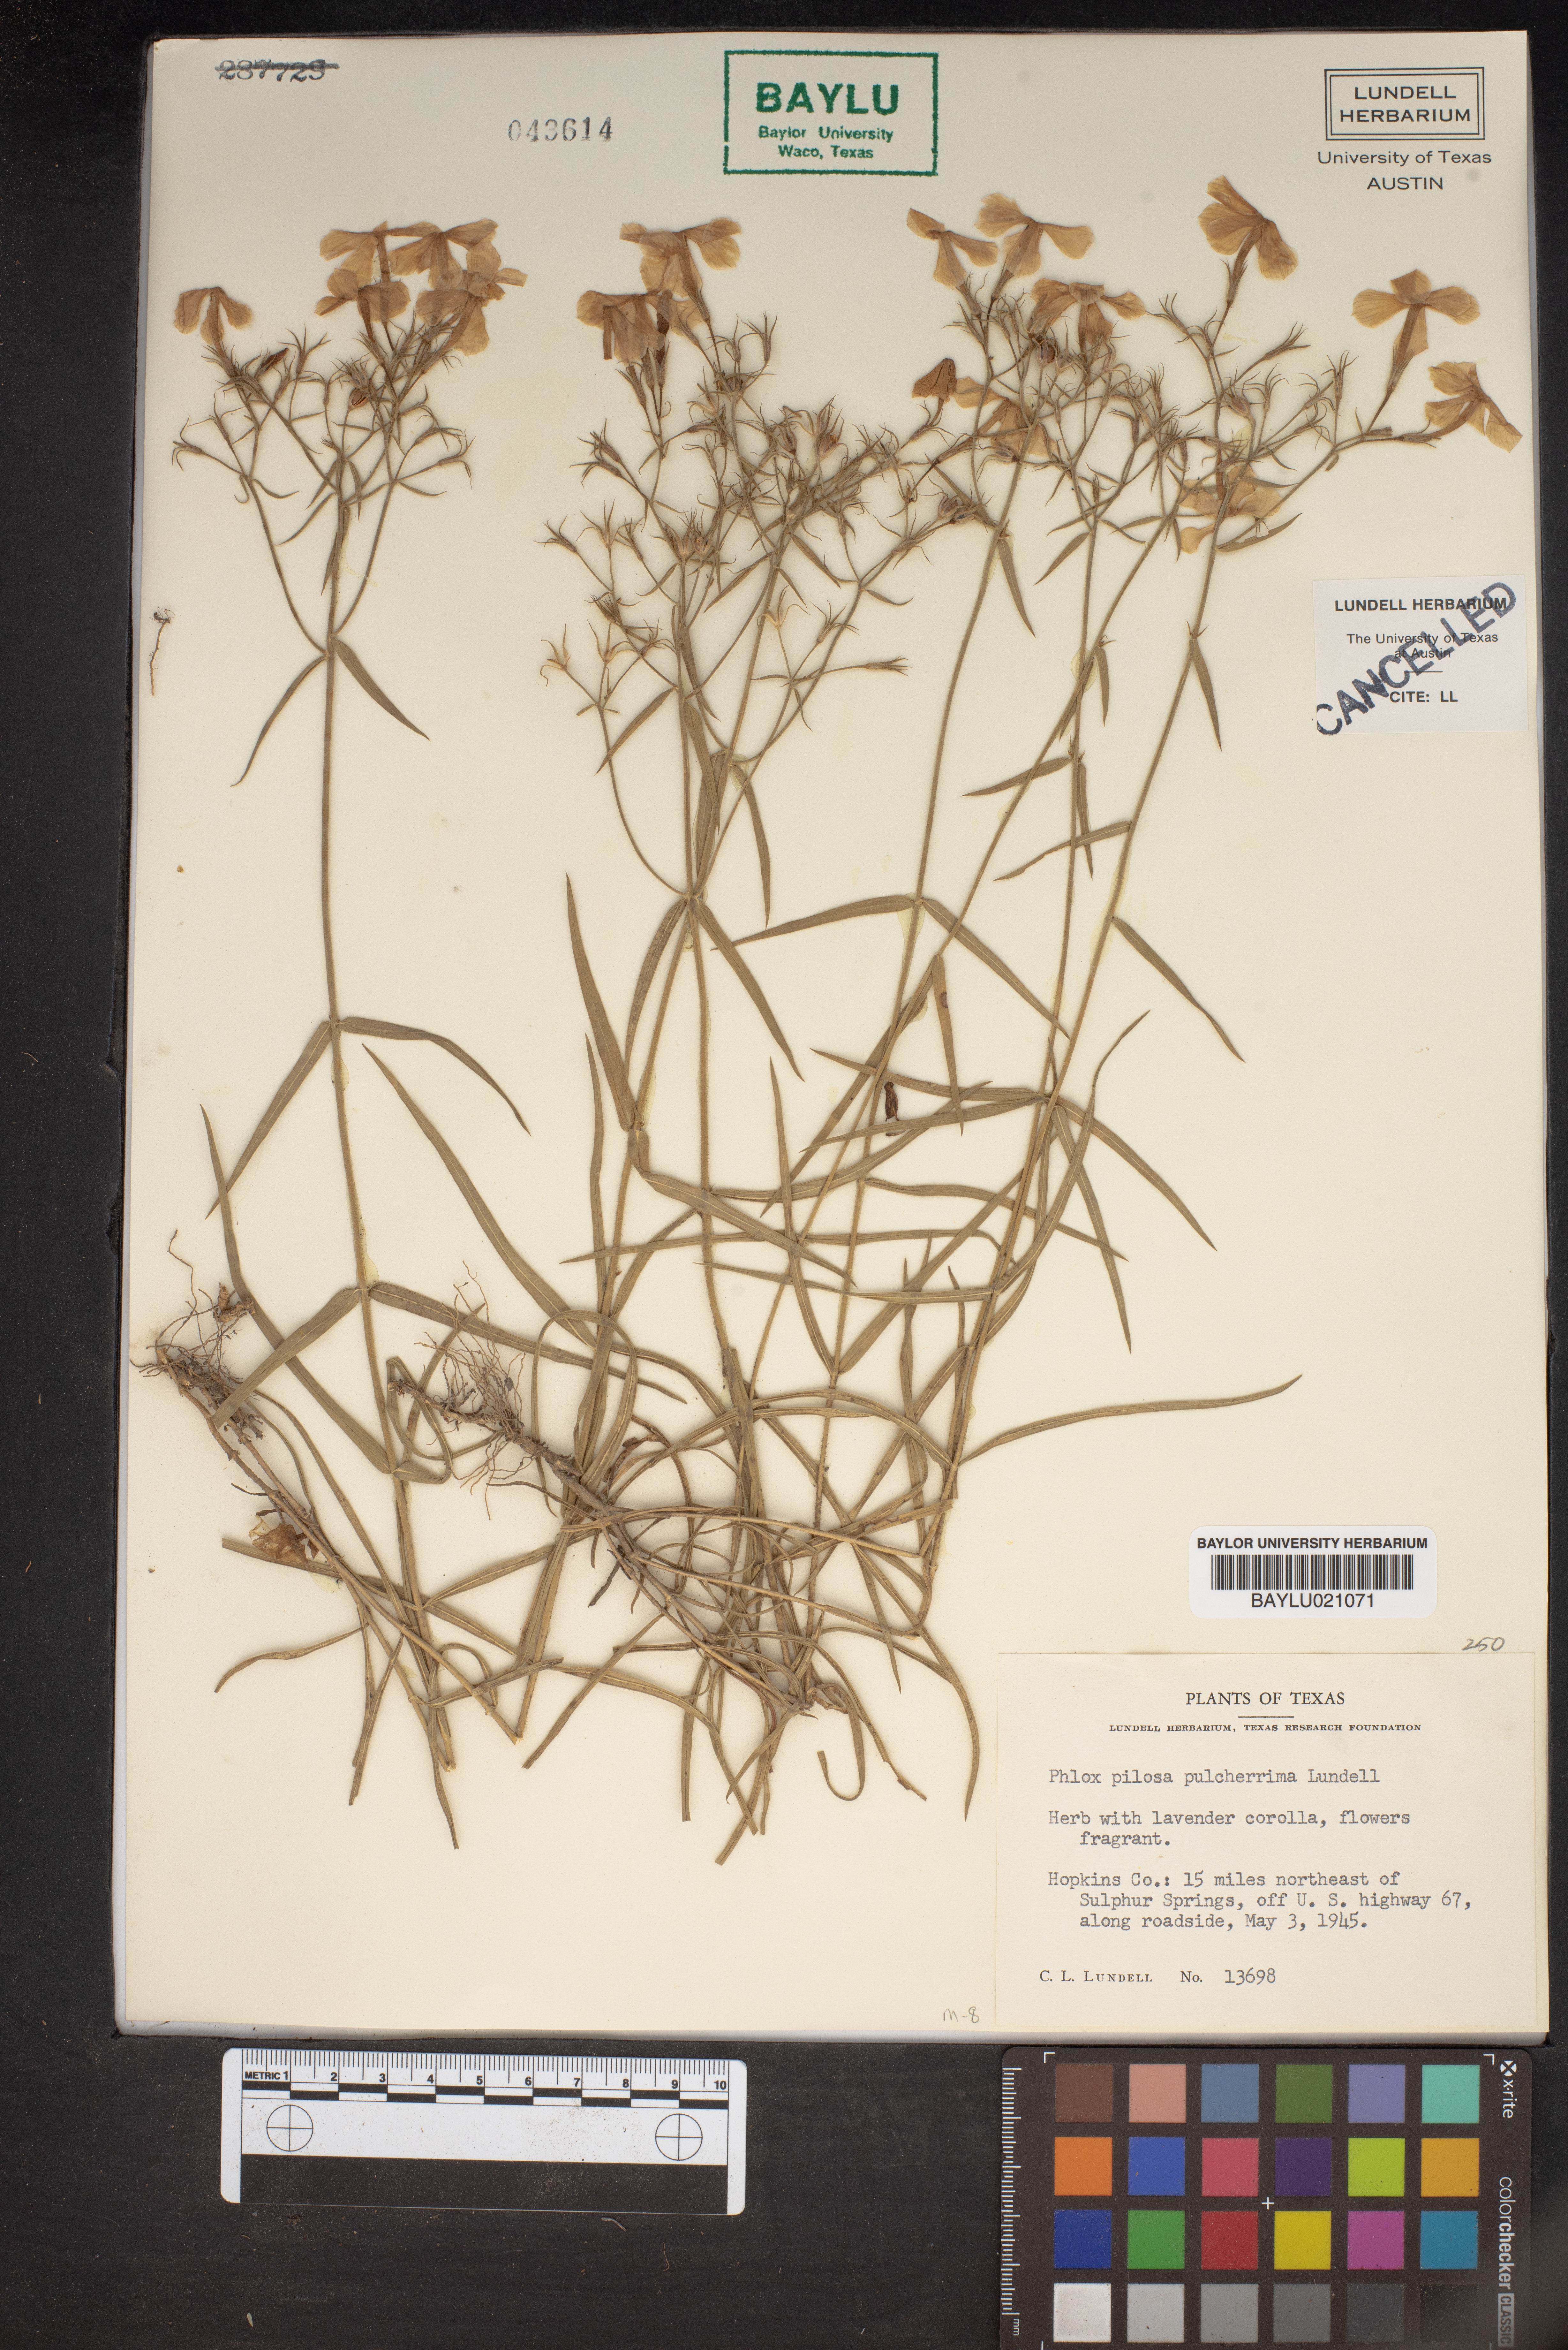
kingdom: Plantae
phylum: Tracheophyta
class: Magnoliopsida
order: Ericales
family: Polemoniaceae
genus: Phlox
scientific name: Phlox pilosa
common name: Prairie phlox
